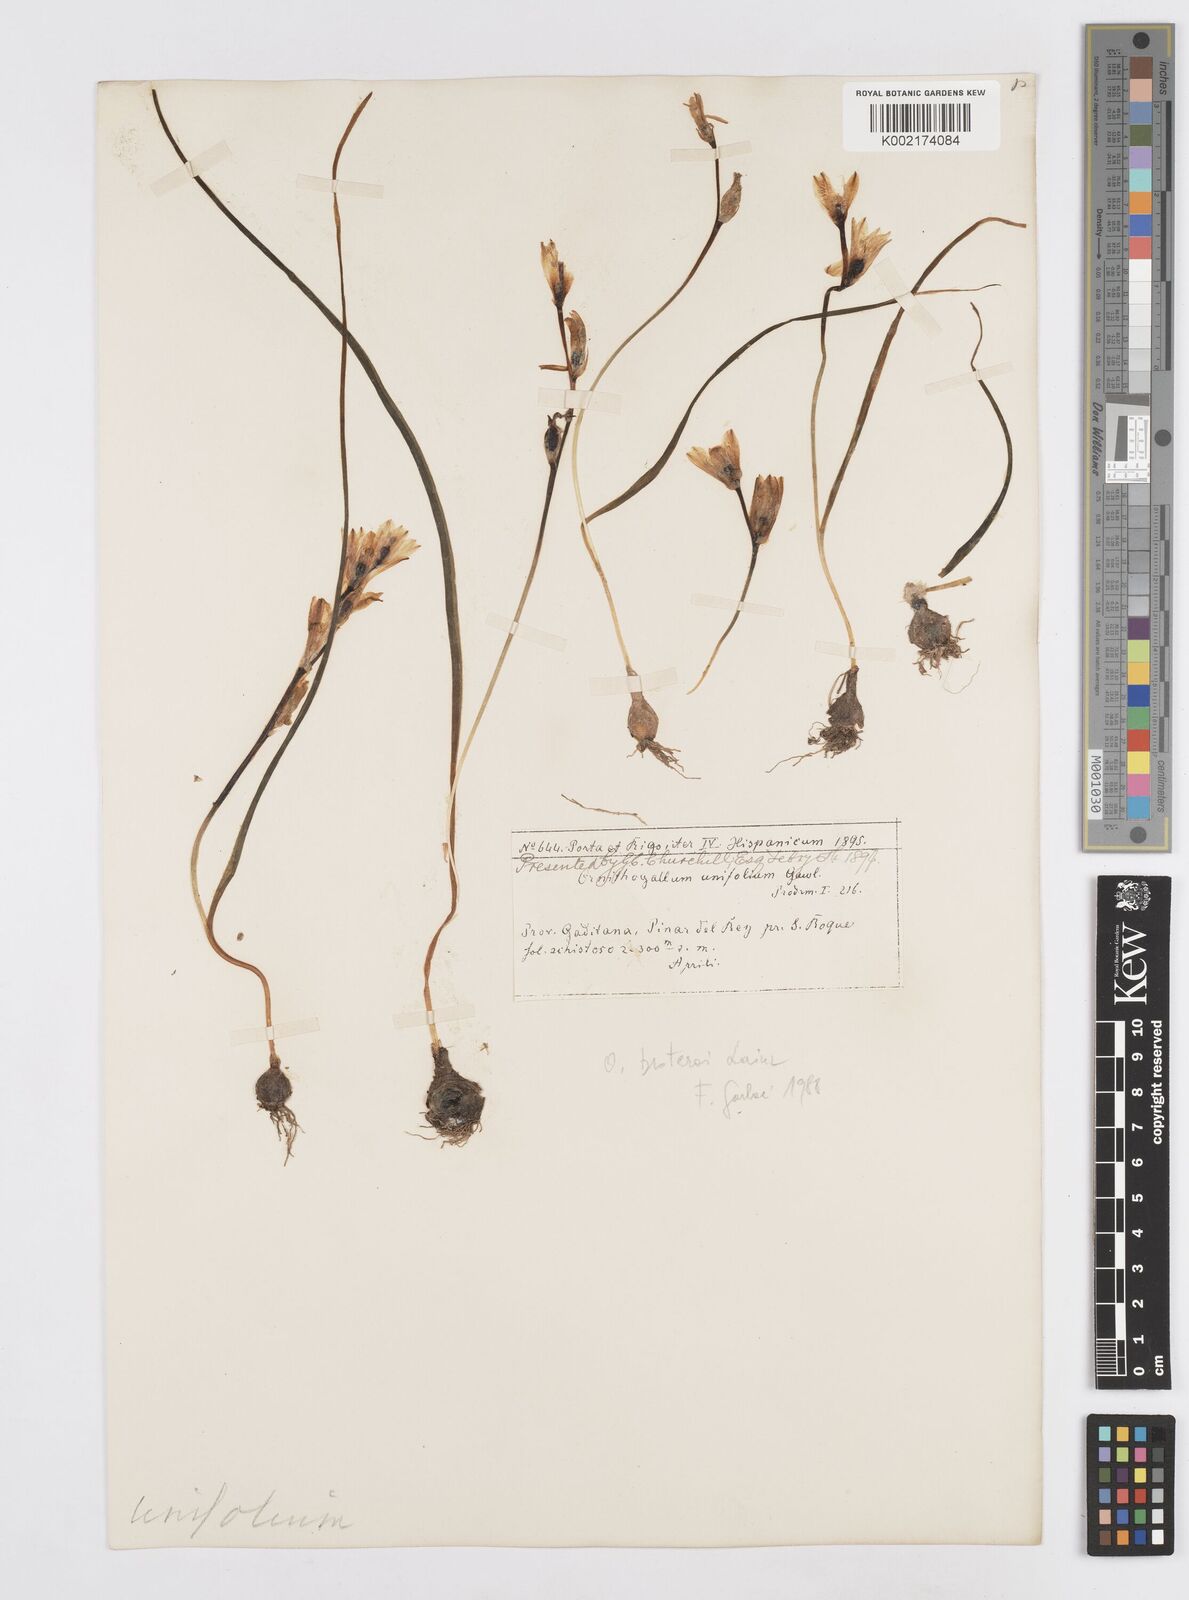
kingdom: Plantae
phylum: Tracheophyta
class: Liliopsida
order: Asparagales
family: Asparagaceae
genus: Ornithogalum
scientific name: Ornithogalum broteroi
